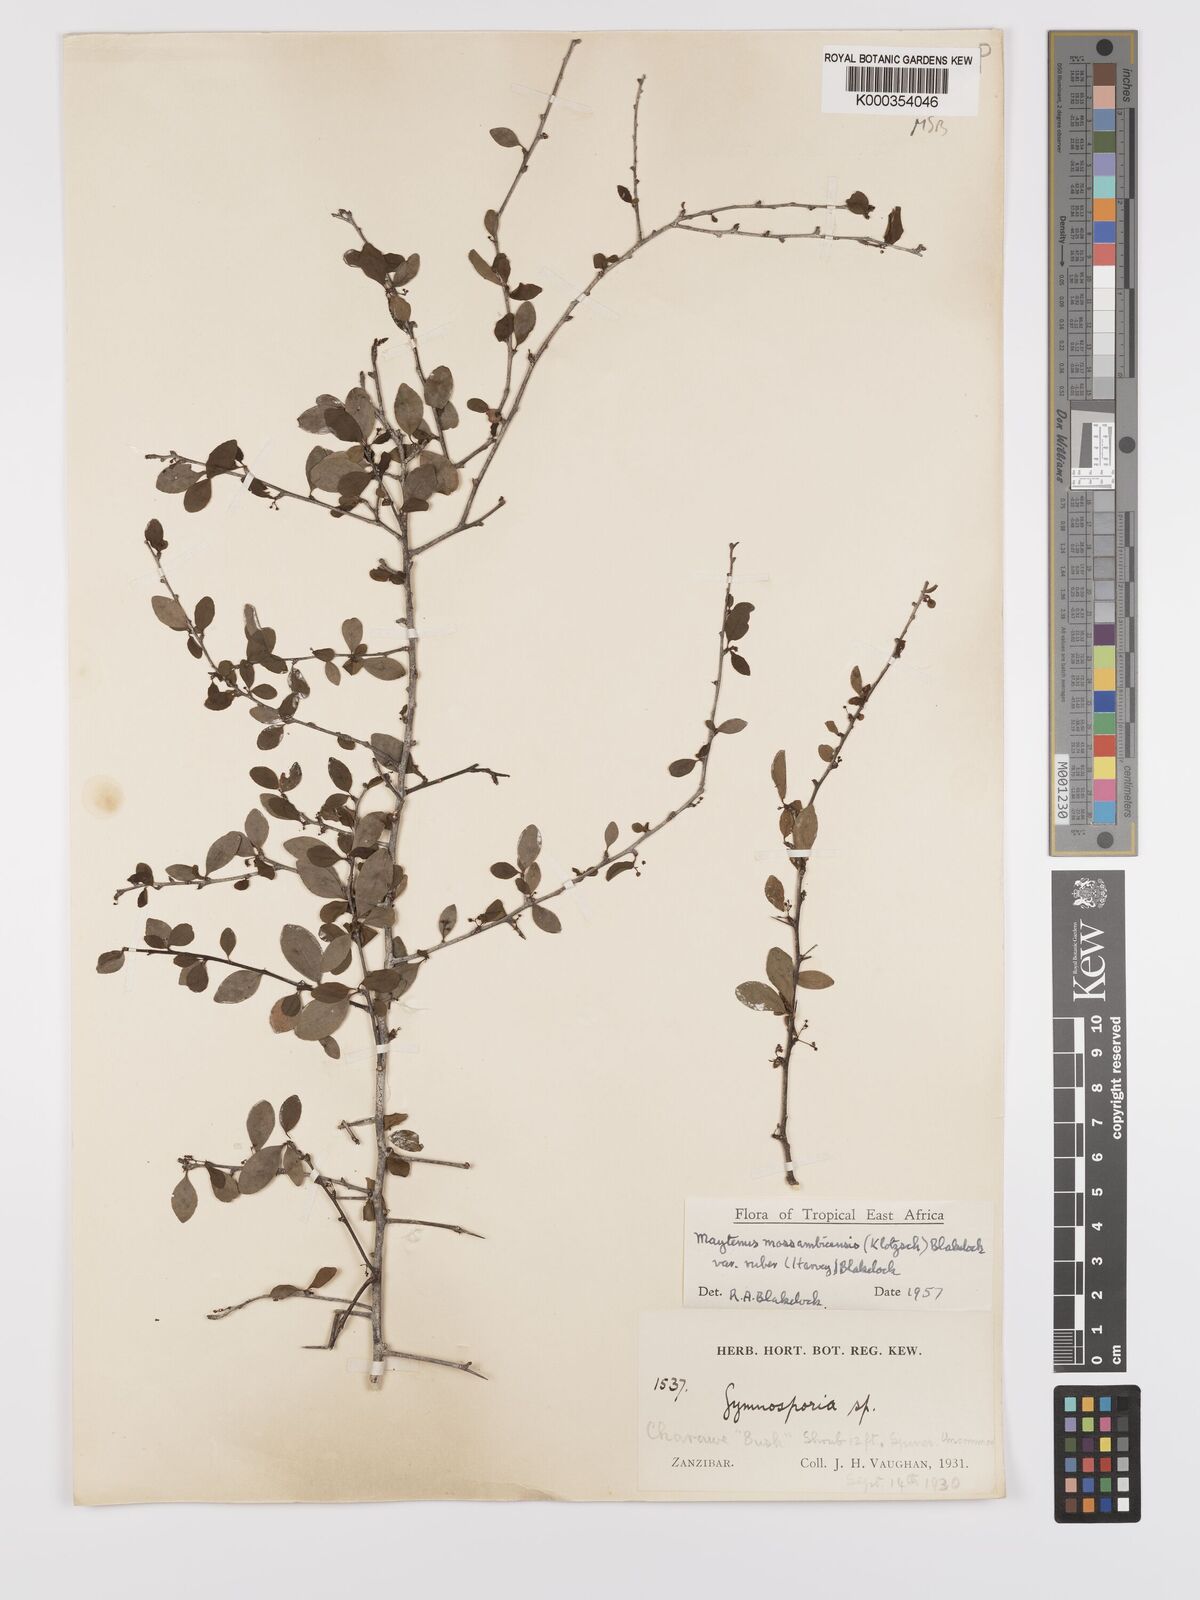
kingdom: Plantae
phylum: Tracheophyta
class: Magnoliopsida
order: Celastrales
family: Celastraceae
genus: Gymnosporia
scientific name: Gymnosporia mossambicensis
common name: Black forest spike-thorn
